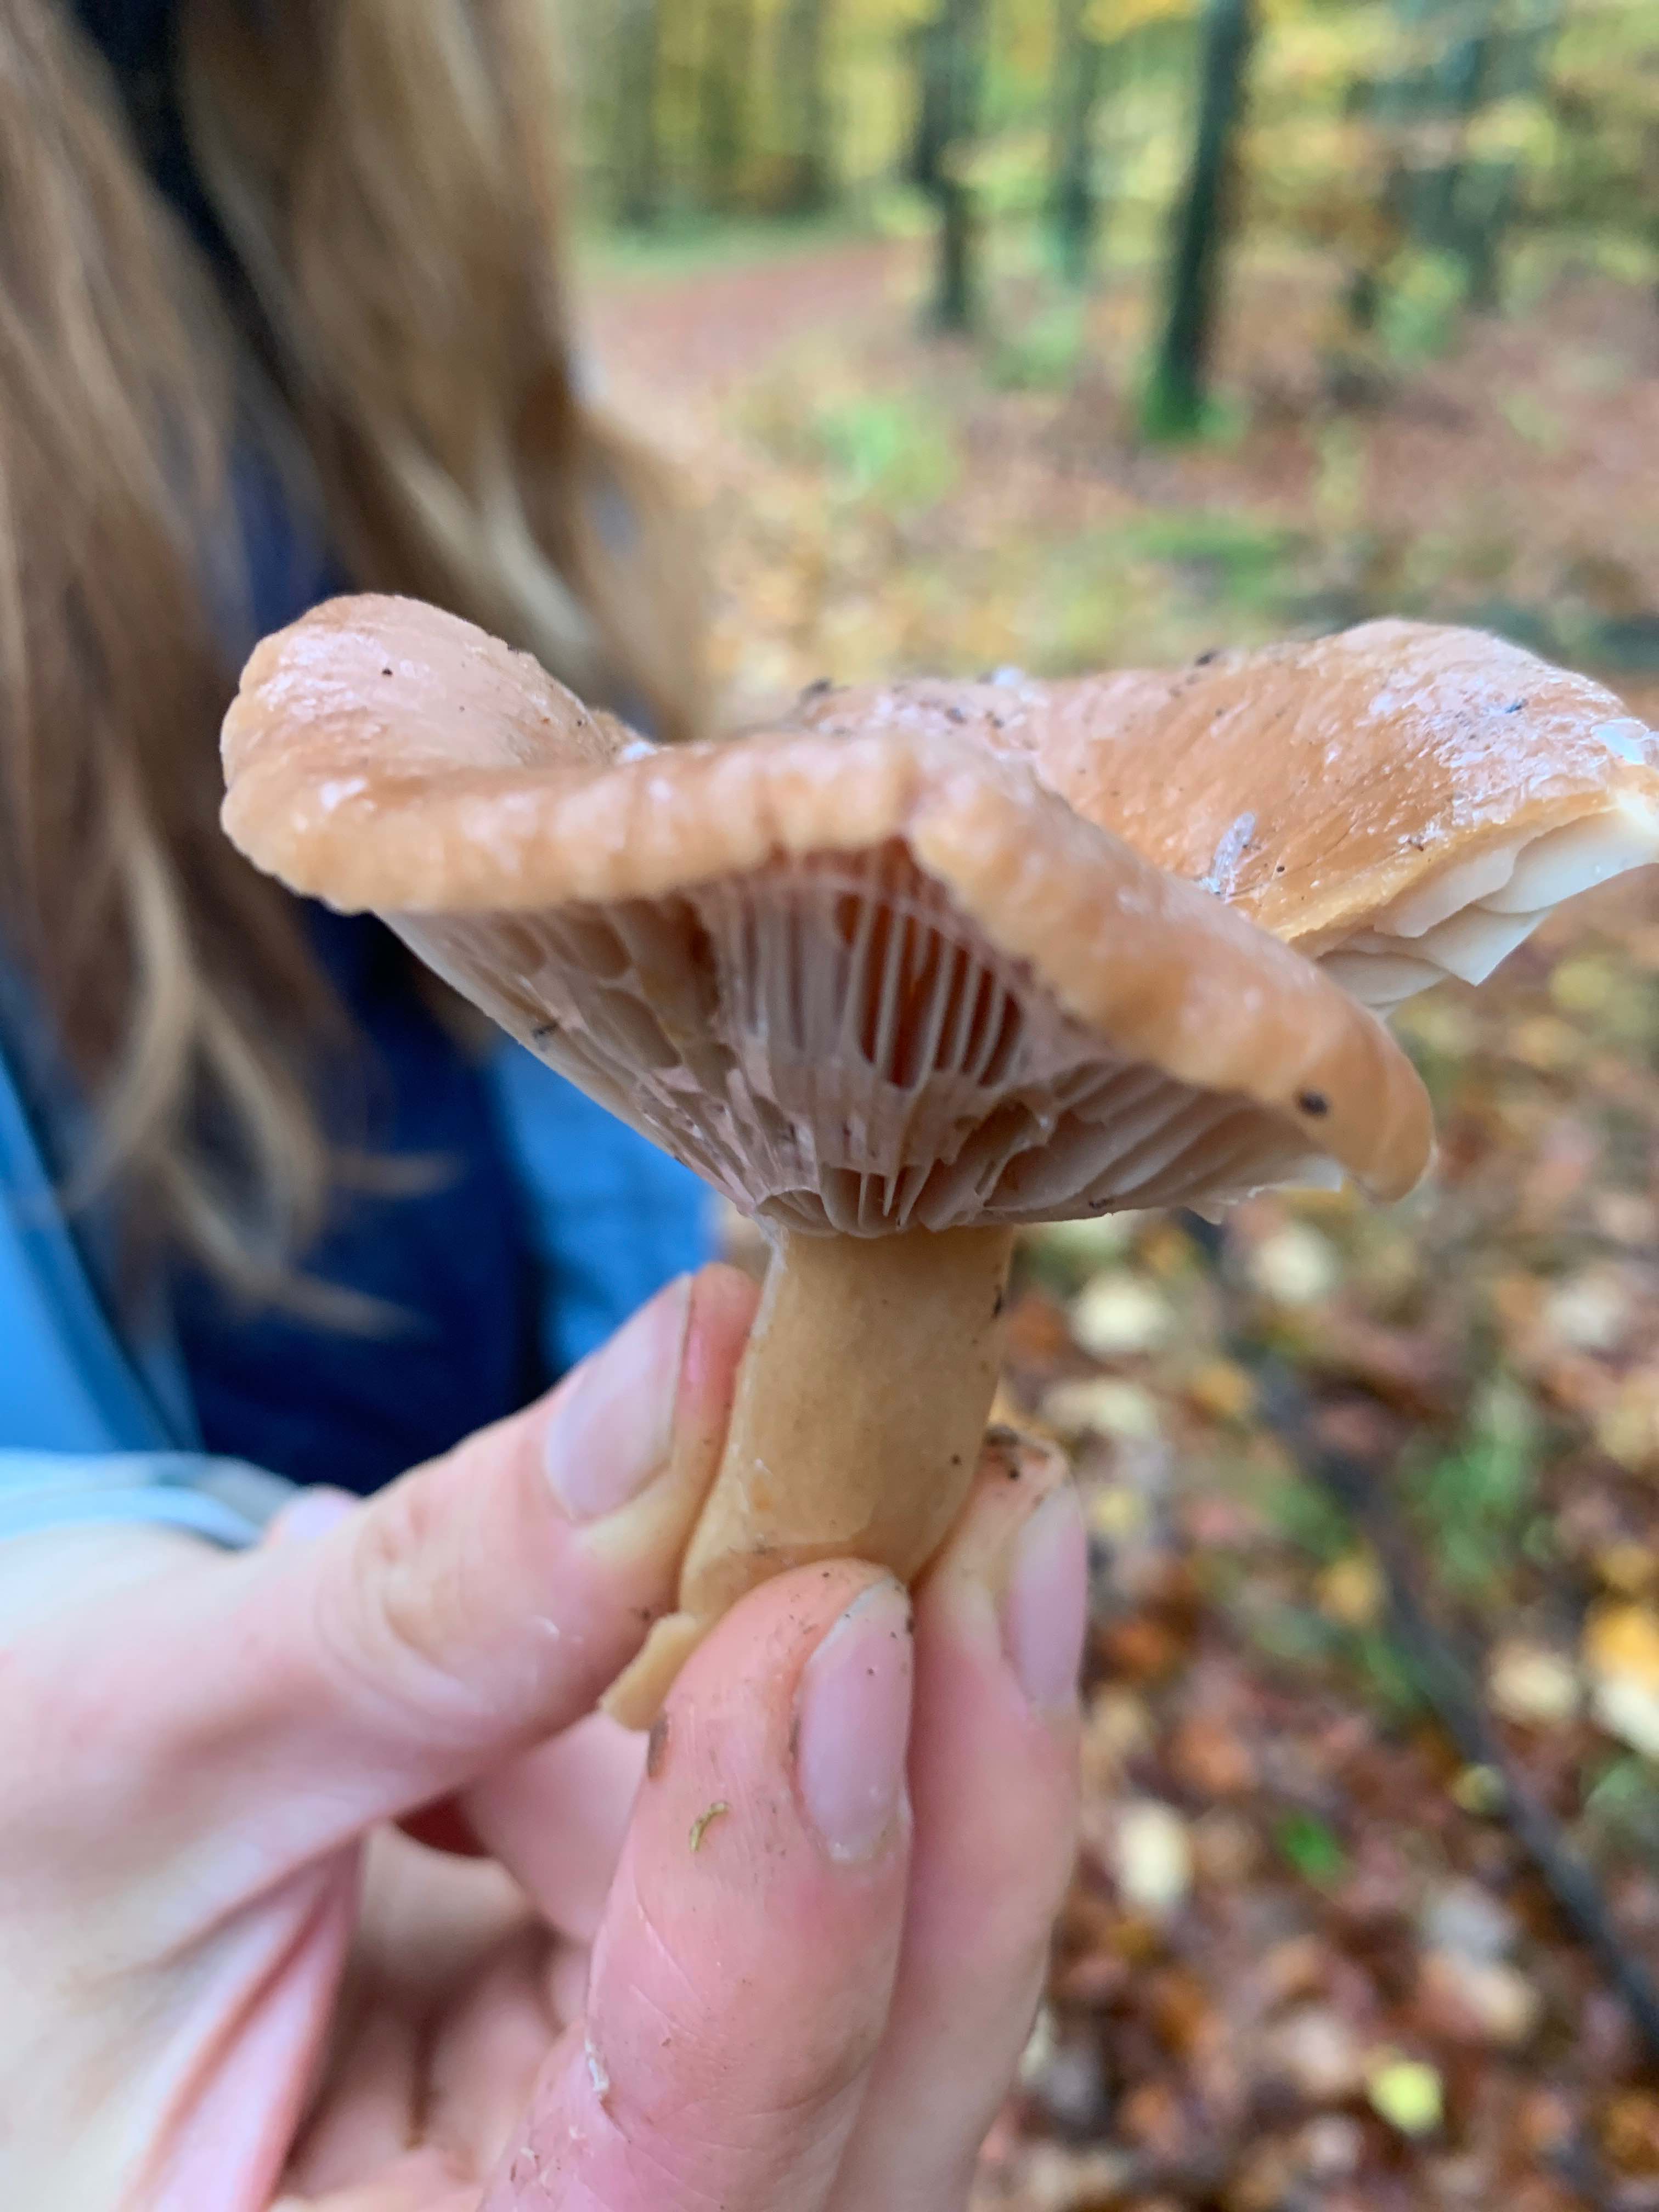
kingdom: Fungi
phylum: Basidiomycota
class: Agaricomycetes
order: Russulales
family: Russulaceae
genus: Lactarius
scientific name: Lactarius subdulcis
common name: sødlig mælkehat
